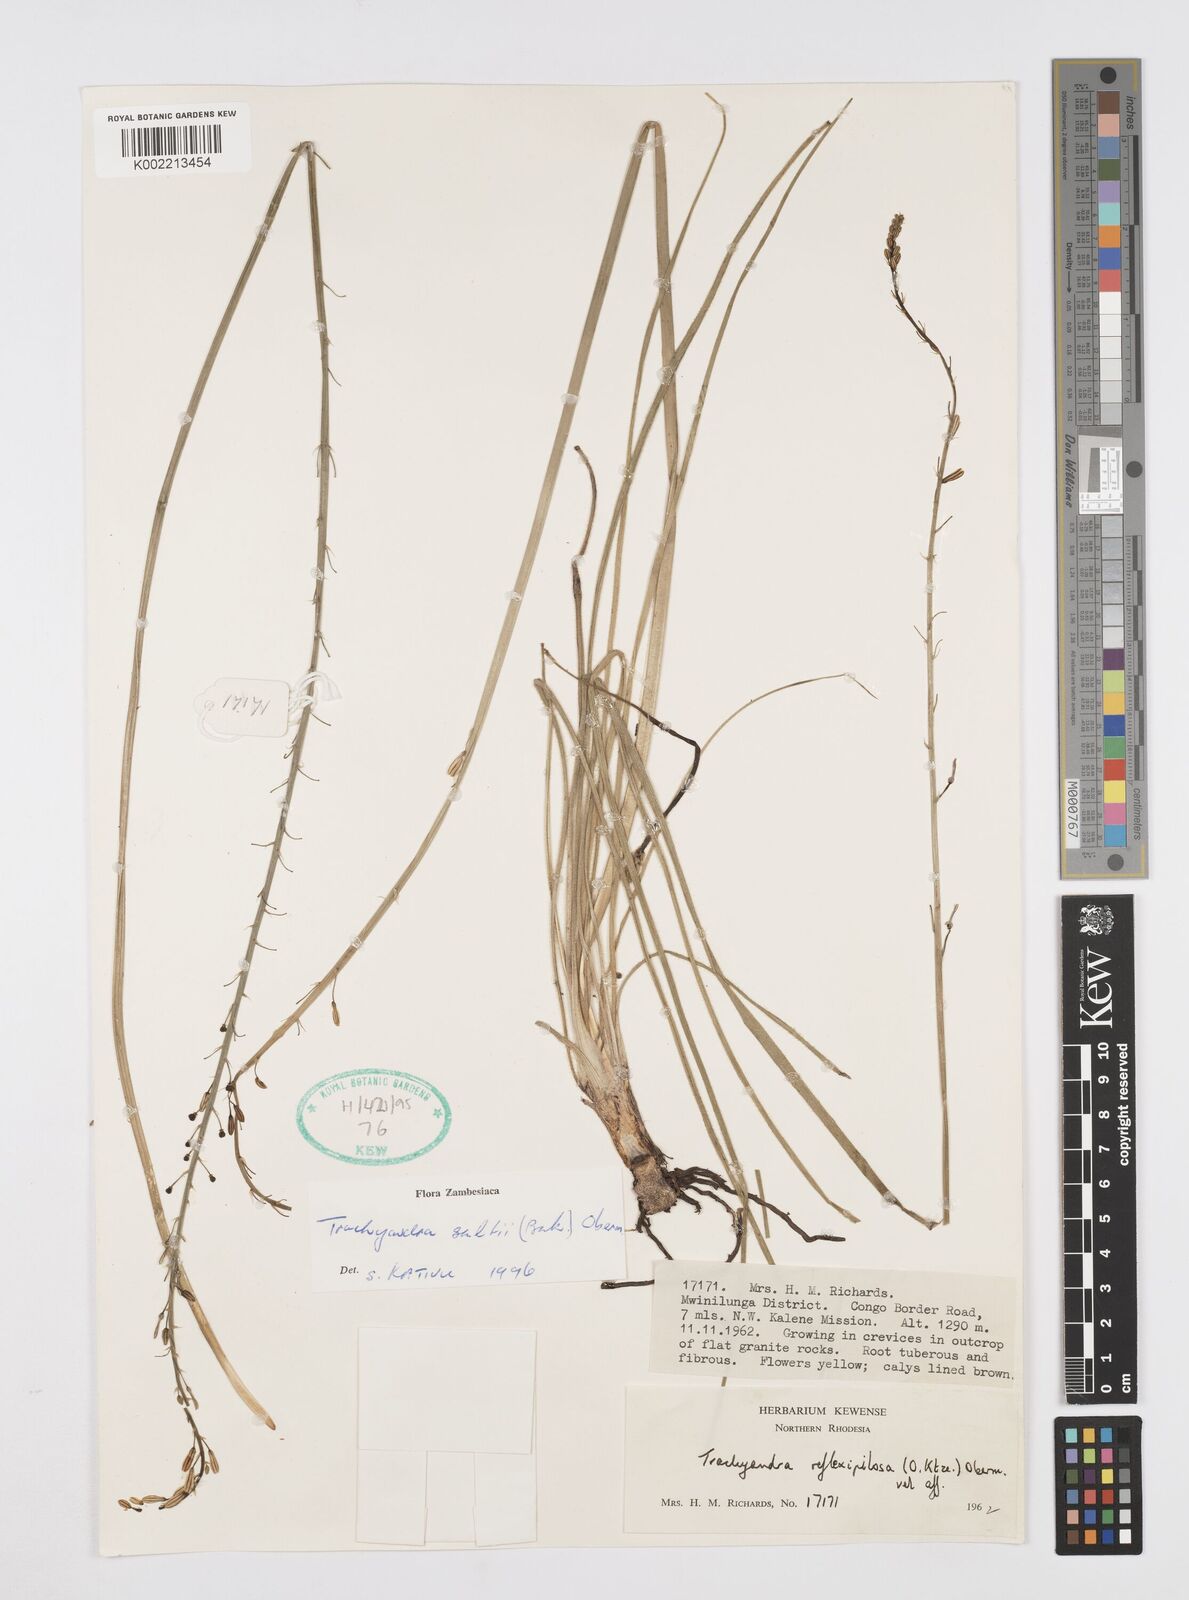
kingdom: Plantae
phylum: Tracheophyta
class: Liliopsida
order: Asparagales
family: Asphodelaceae
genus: Trachyandra
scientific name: Trachyandra saltii
